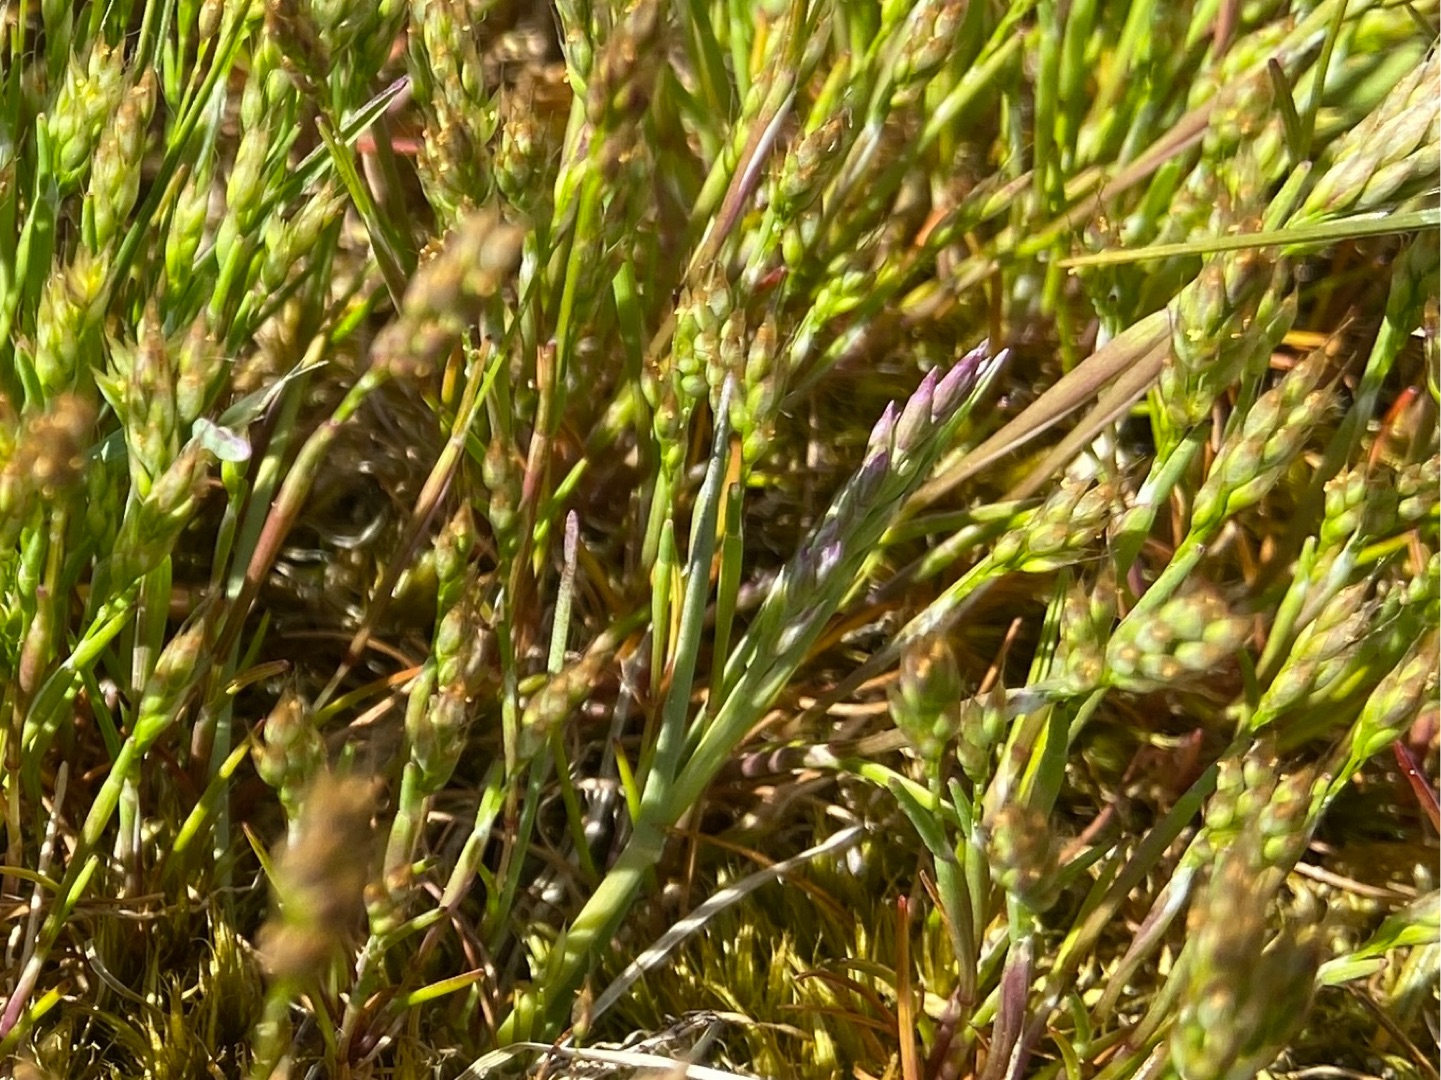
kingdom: Plantae
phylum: Tracheophyta
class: Liliopsida
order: Poales
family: Poaceae
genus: Aira
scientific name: Aira praecox
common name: Tidlig dværgbunke
